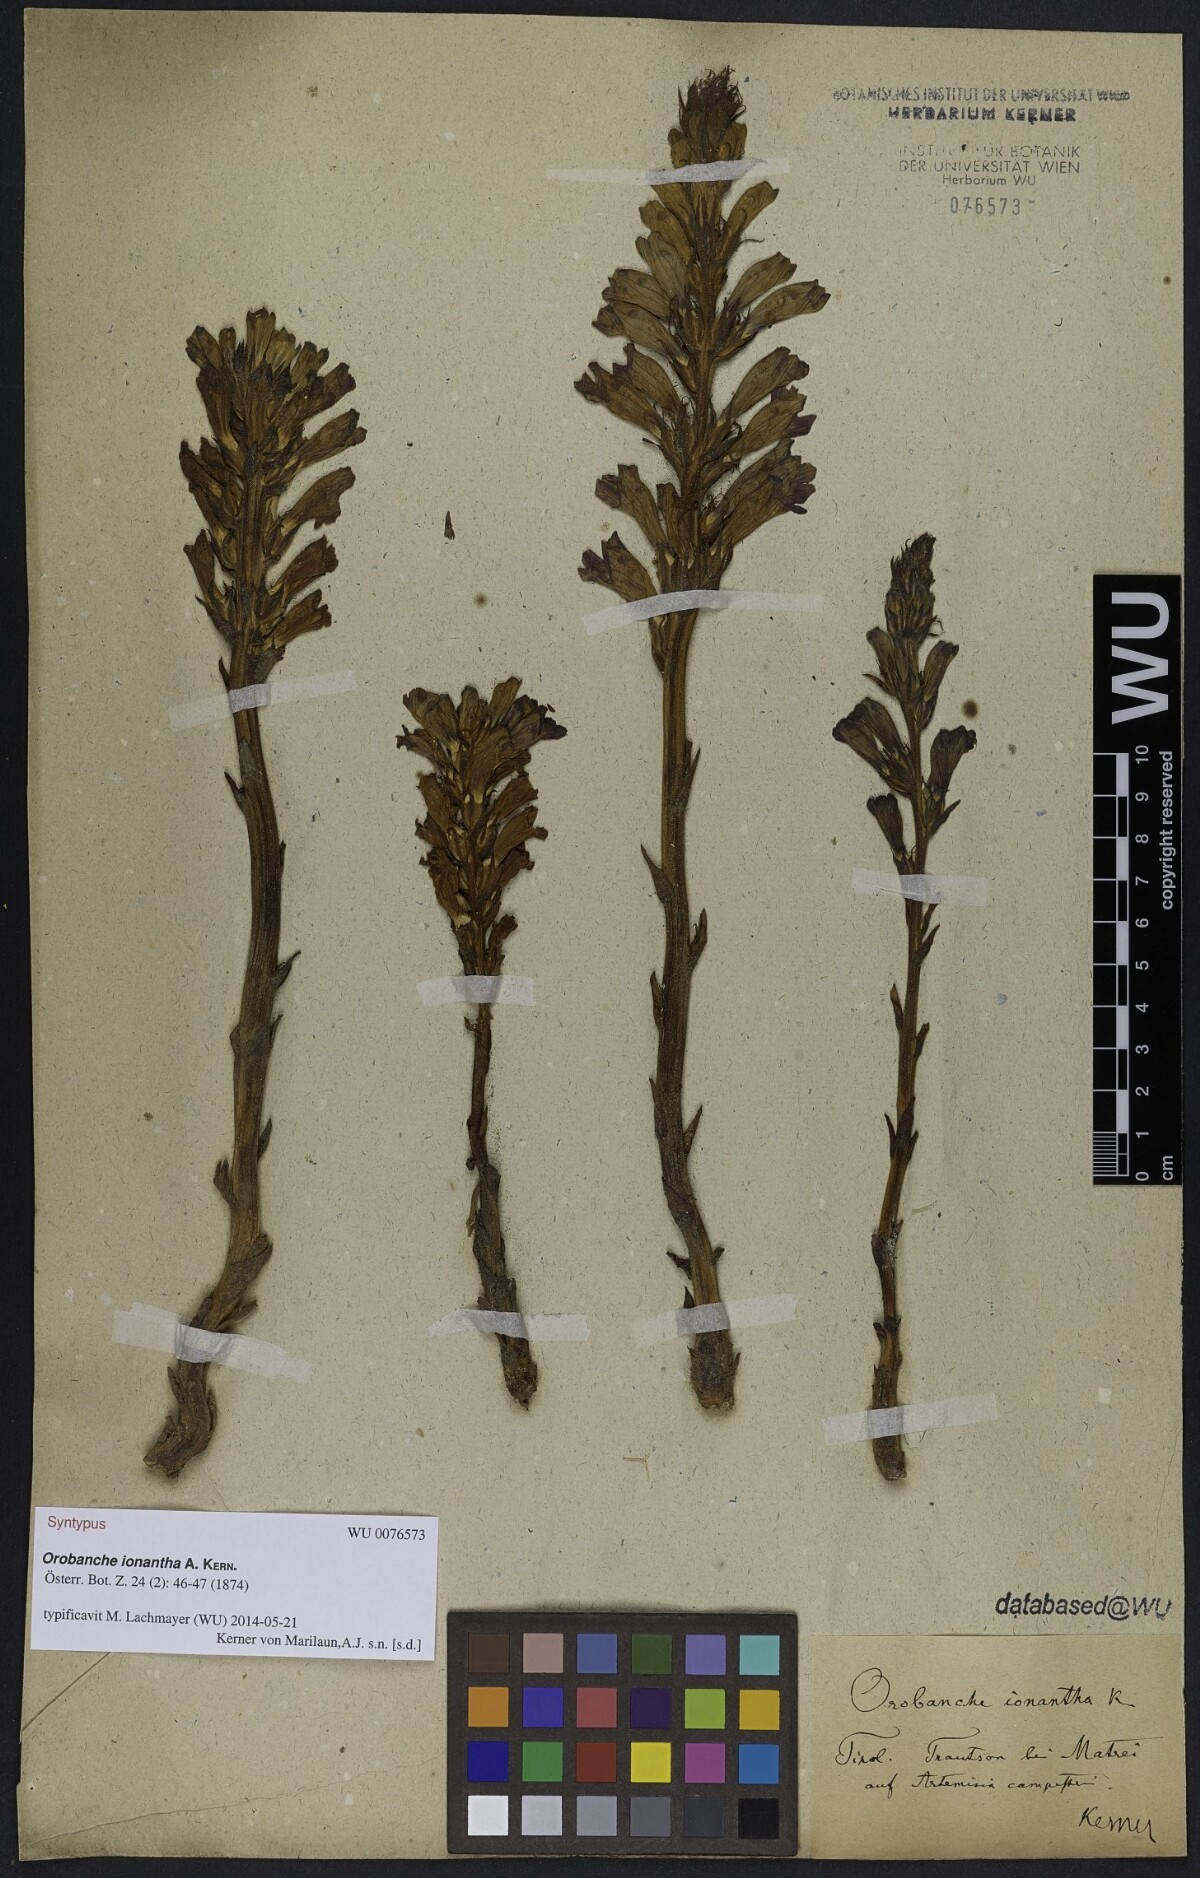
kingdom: Plantae
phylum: Tracheophyta
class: Magnoliopsida
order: Lamiales
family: Orobanchaceae
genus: Phelipanche
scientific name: Phelipanche arenaria
